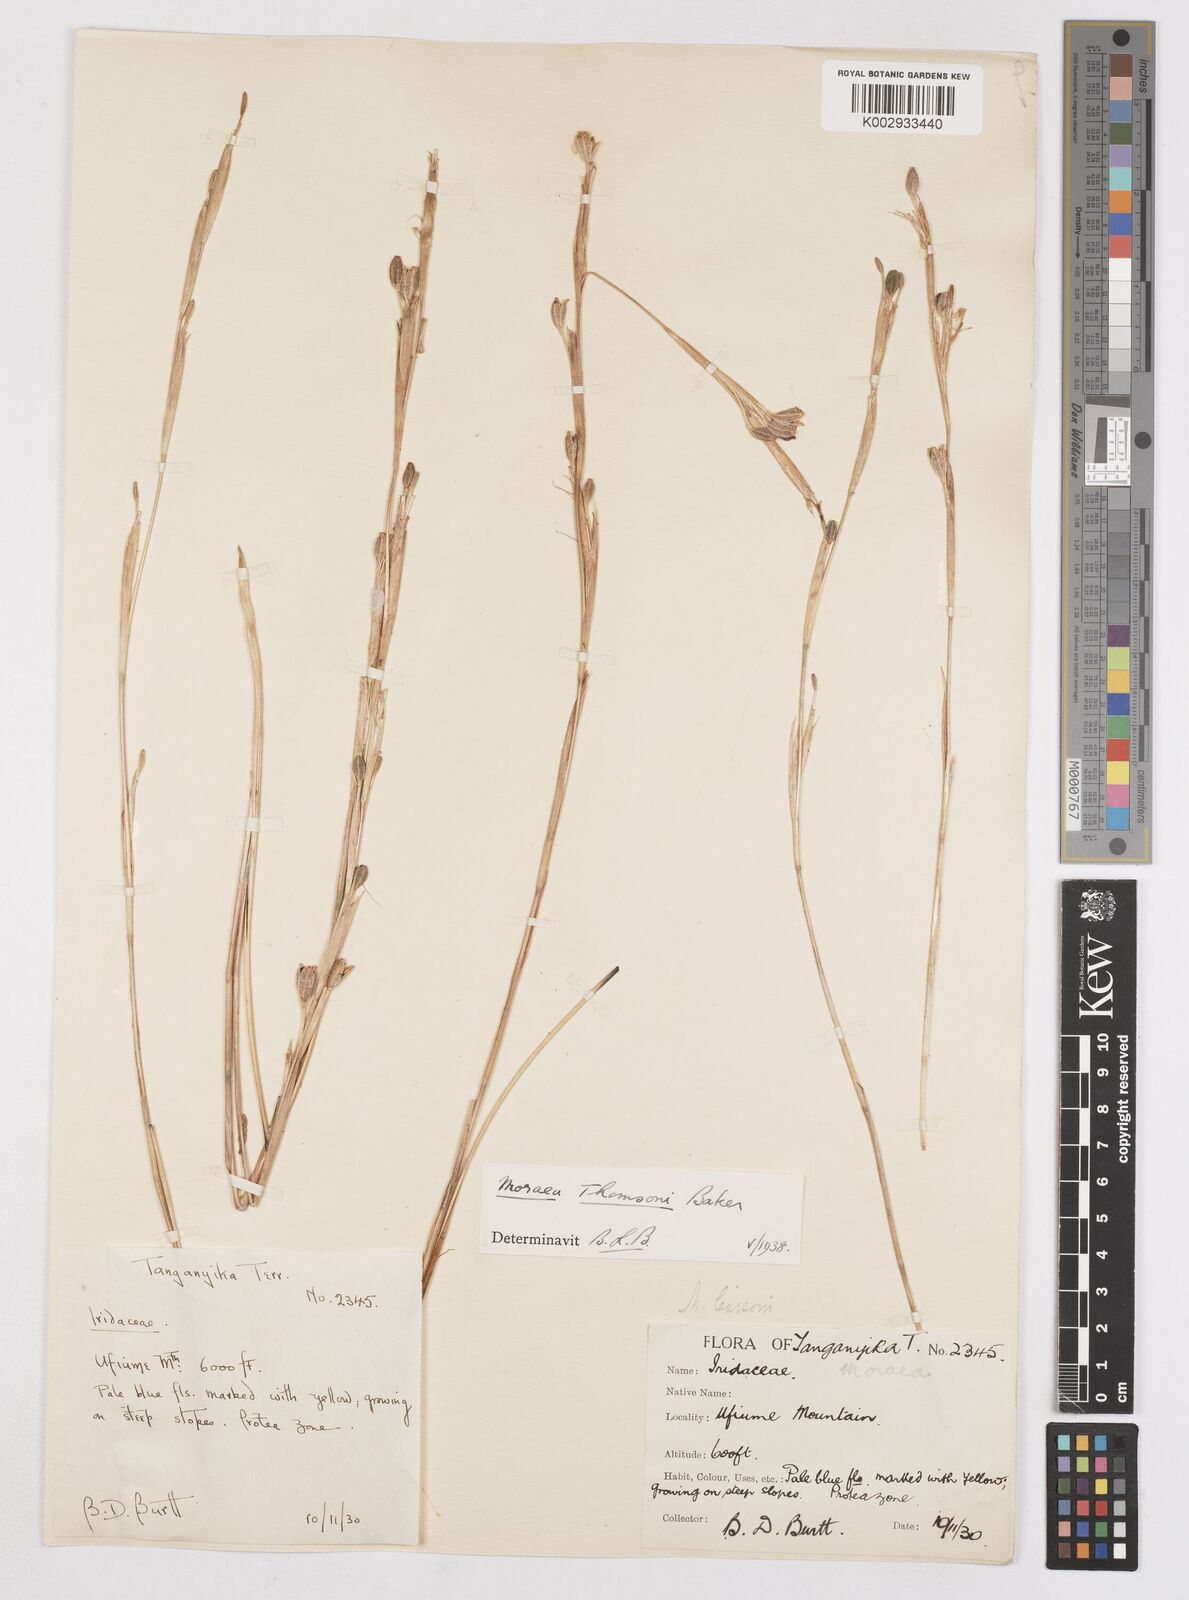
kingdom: Plantae
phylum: Tracheophyta
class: Liliopsida
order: Asparagales
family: Iridaceae
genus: Moraea
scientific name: Moraea stricta
